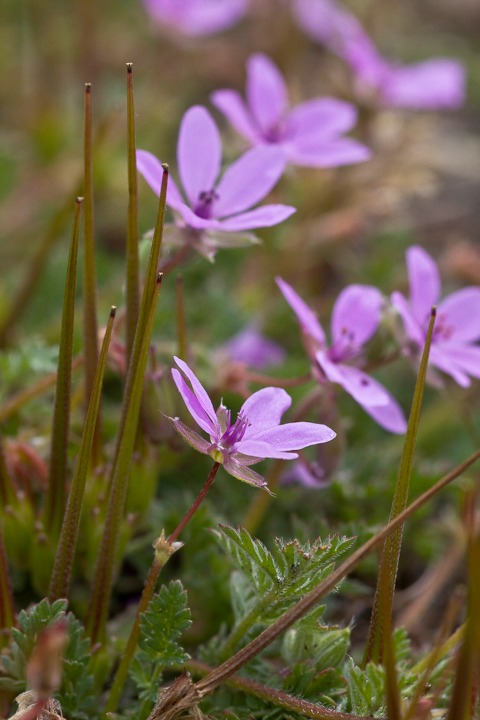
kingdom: Plantae
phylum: Tracheophyta
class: Magnoliopsida
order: Geraniales
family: Geraniaceae
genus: Erodium
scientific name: Erodium cicutarium
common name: Hejrenæb
